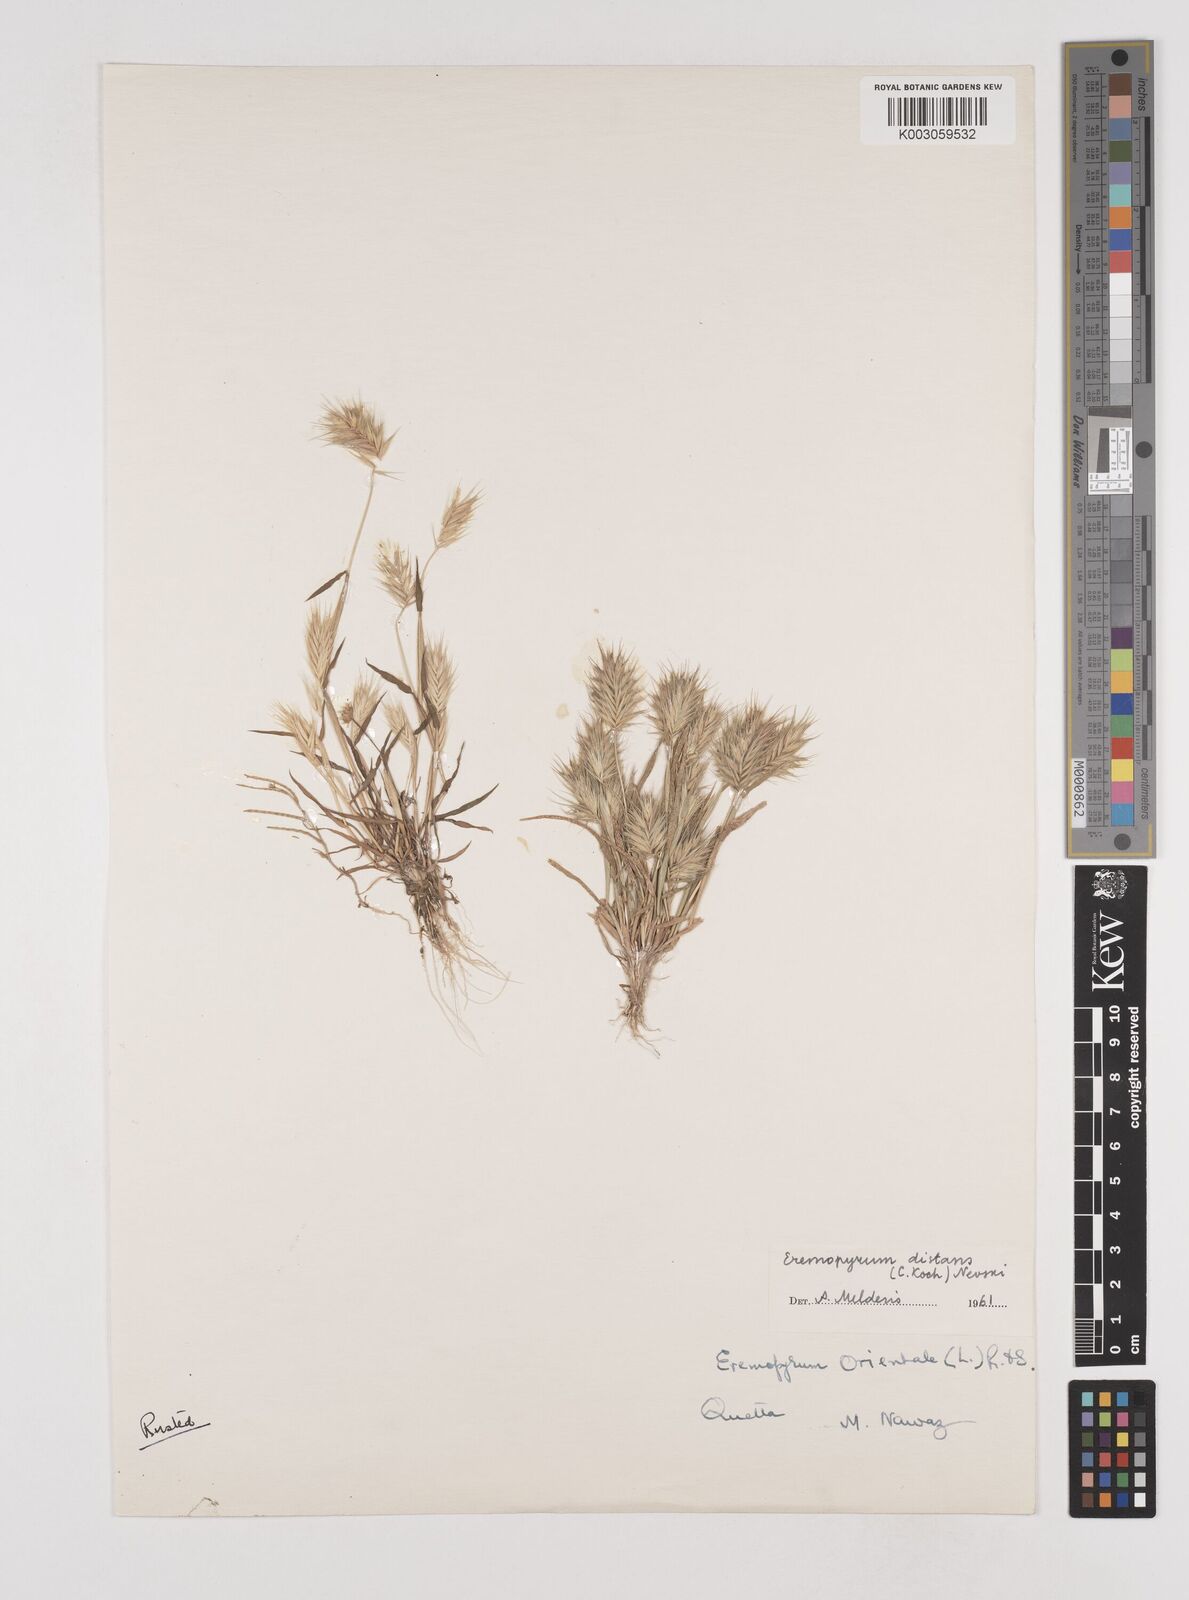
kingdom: Plantae
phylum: Tracheophyta
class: Liliopsida
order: Poales
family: Poaceae
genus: Eremopyrum
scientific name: Eremopyrum distans
